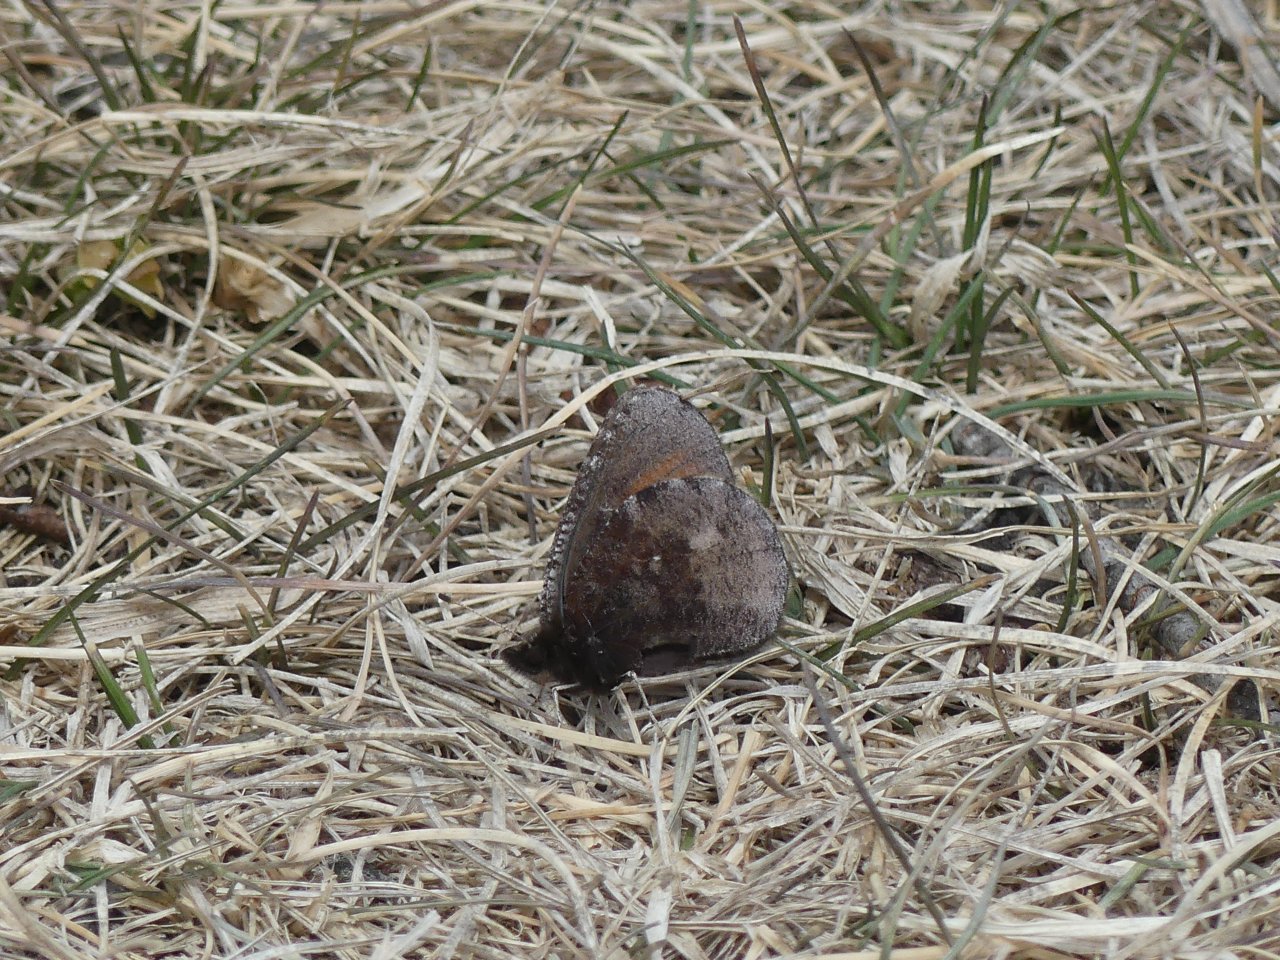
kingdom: Animalia
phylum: Arthropoda
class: Insecta
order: Lepidoptera
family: Nymphalidae
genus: Erebia
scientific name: Erebia discoidalis
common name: Red-disked Alpine
